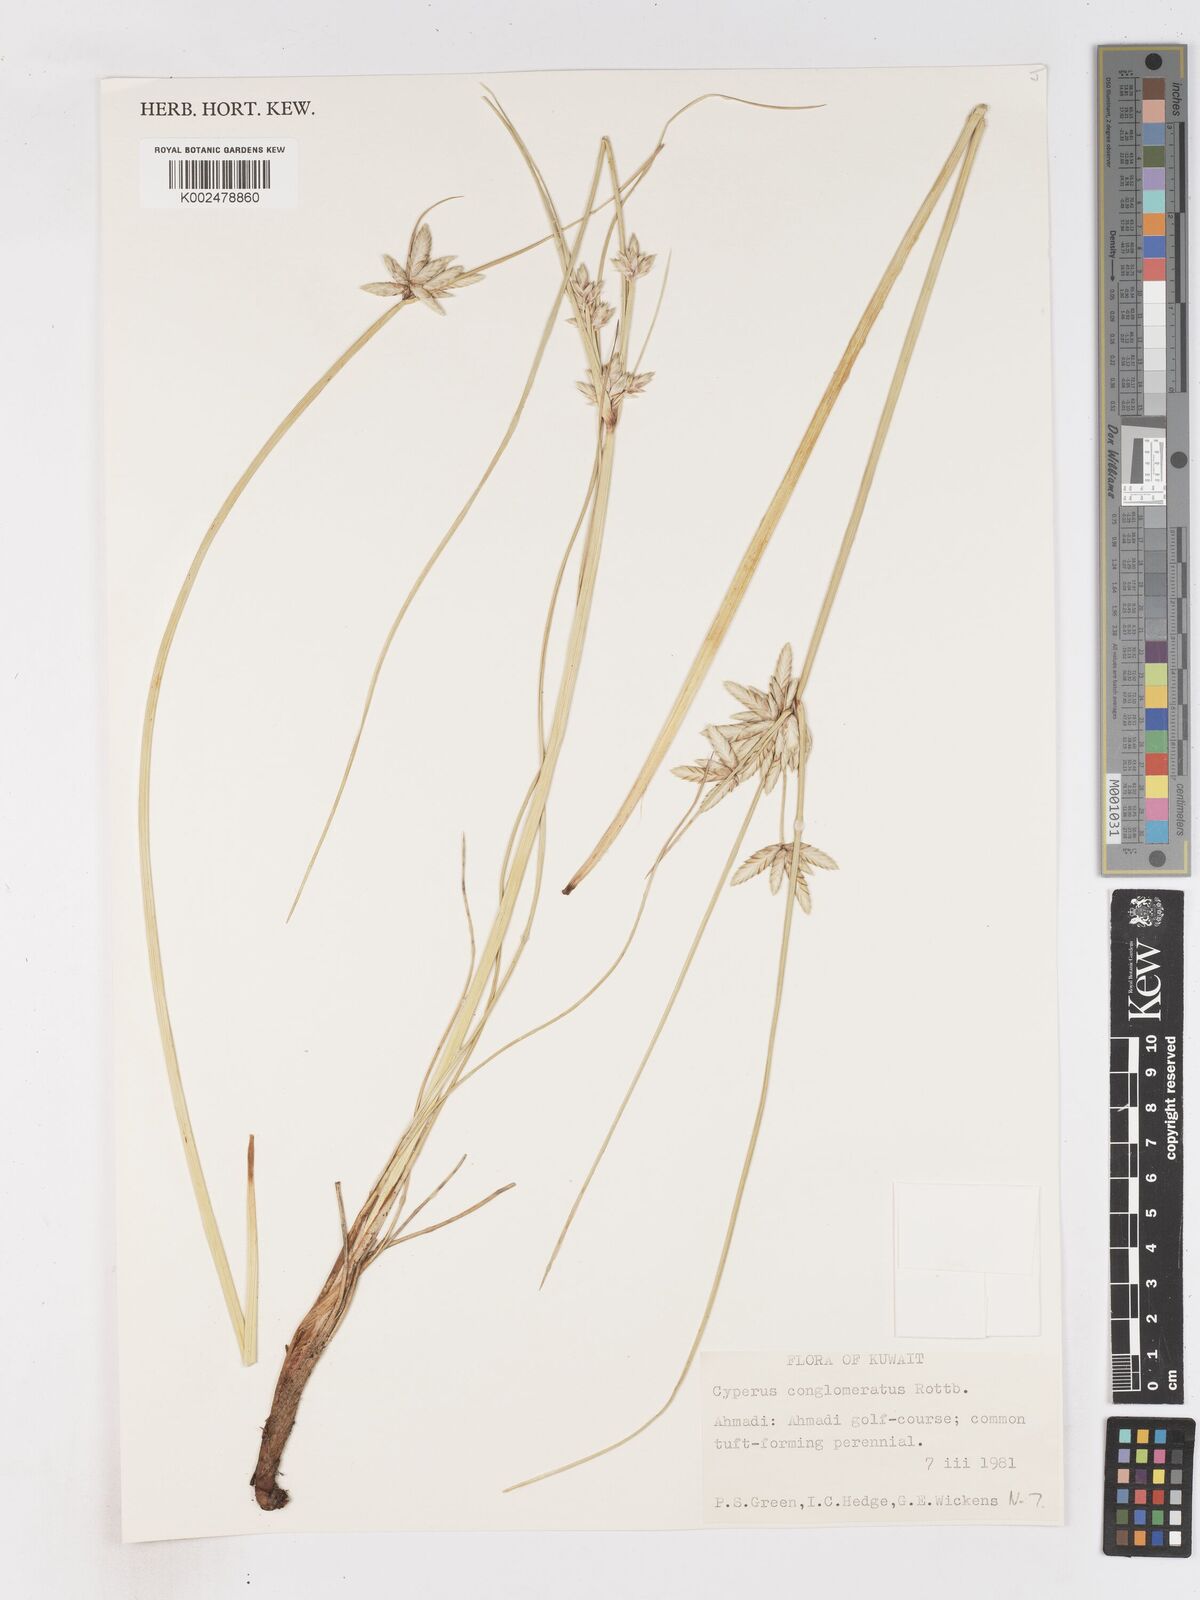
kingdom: Plantae
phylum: Tracheophyta
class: Liliopsida
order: Poales
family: Cyperaceae
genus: Cyperus
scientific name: Cyperus conglomeratus
